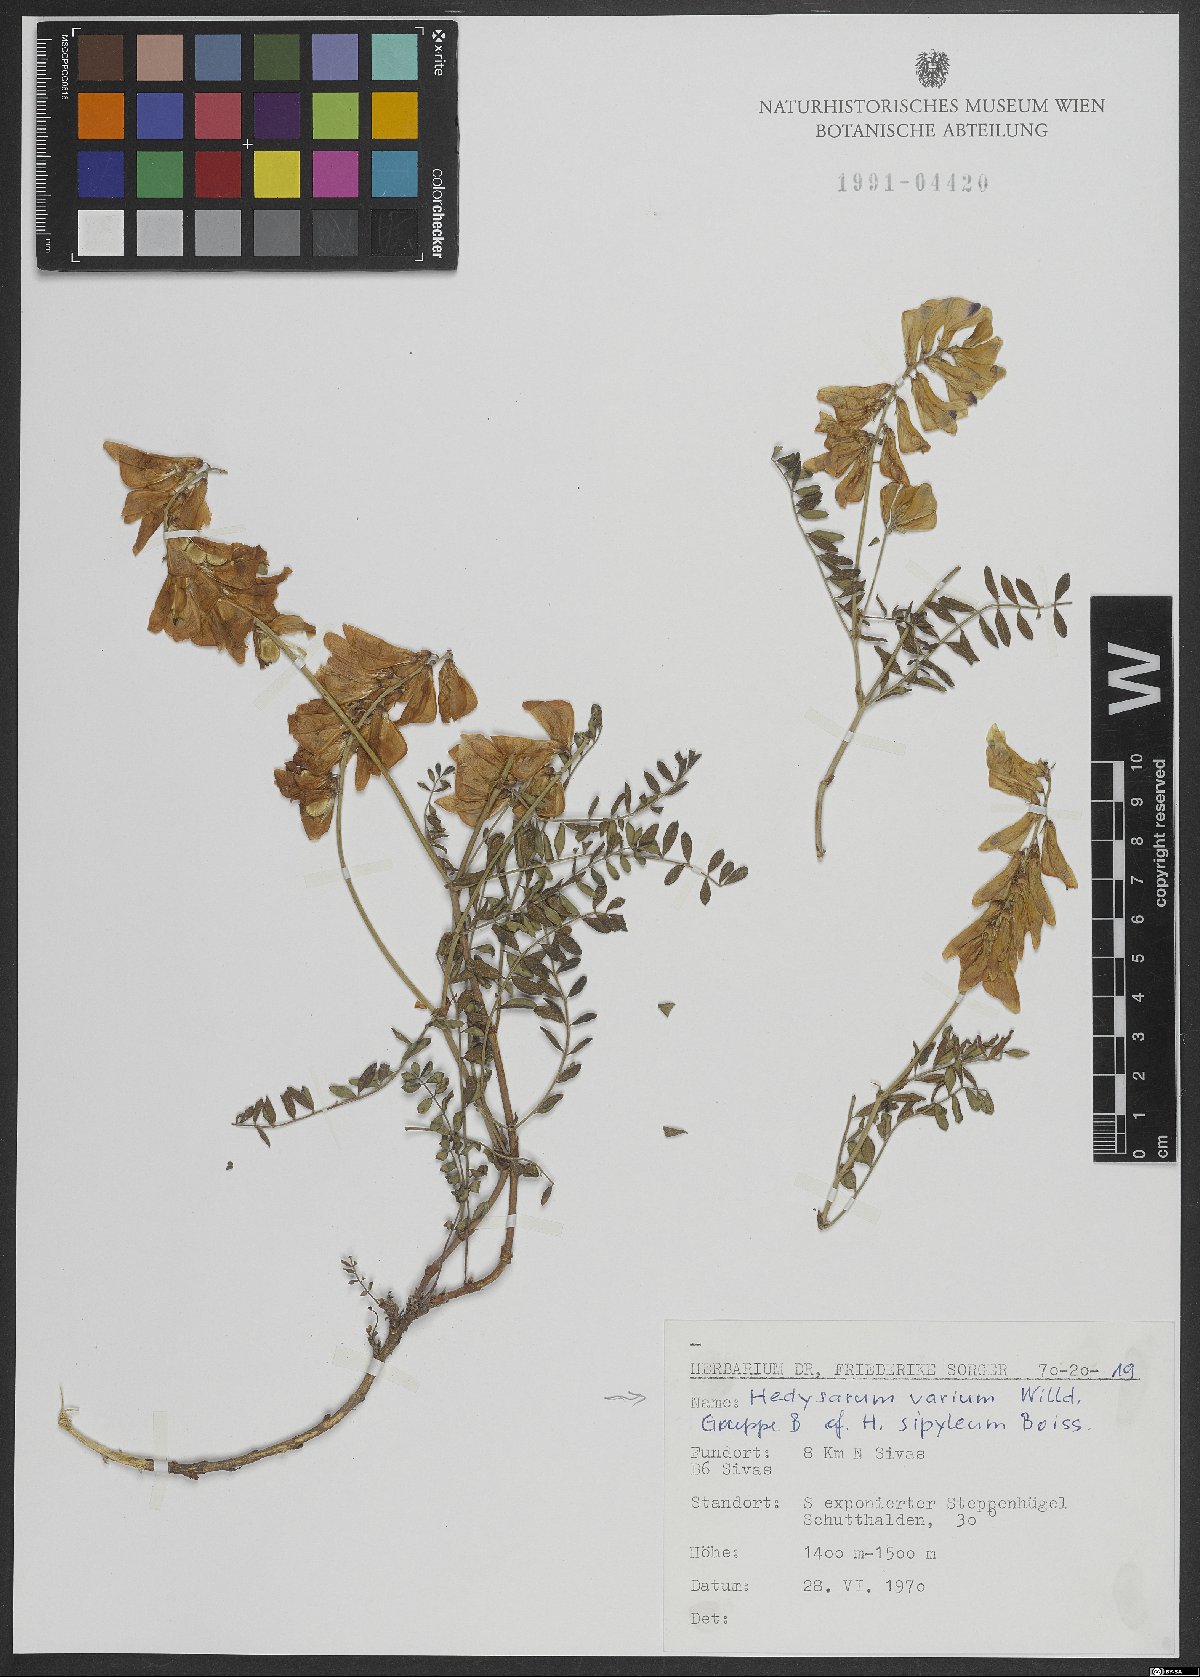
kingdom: Plantae
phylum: Tracheophyta
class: Magnoliopsida
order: Fabales
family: Fabaceae
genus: Hedysarum
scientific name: Hedysarum varium
